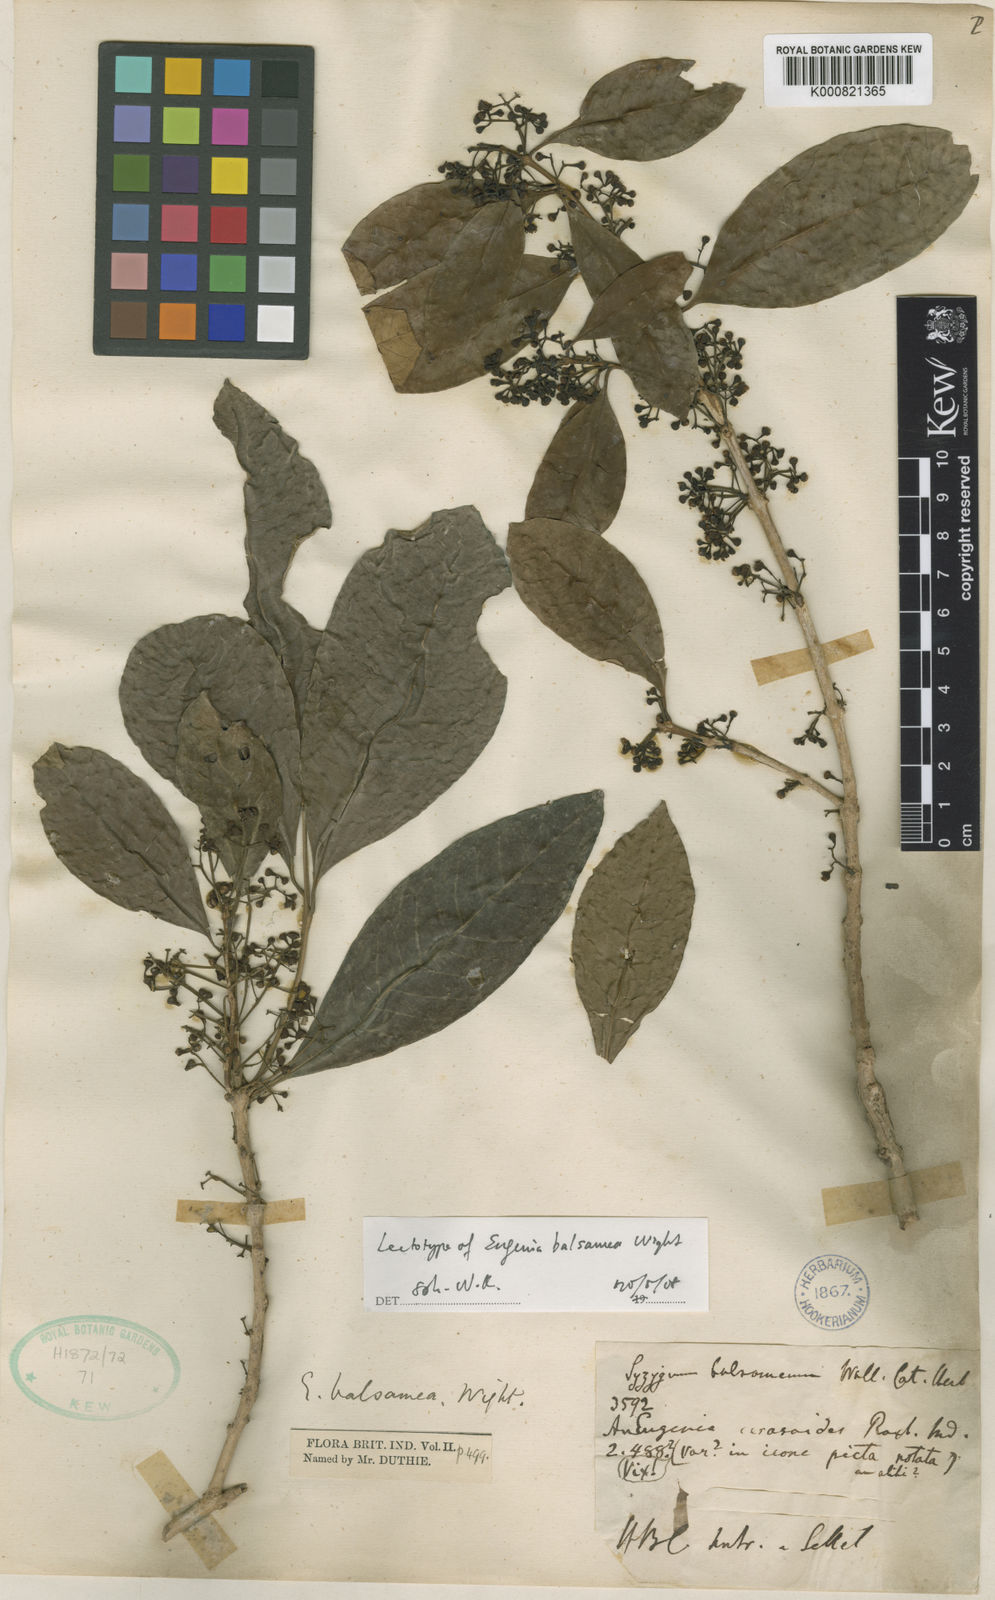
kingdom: Plantae
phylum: Tracheophyta
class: Magnoliopsida
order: Myrtales
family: Myrtaceae
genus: Syzygium
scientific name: Syzygium balsameum
